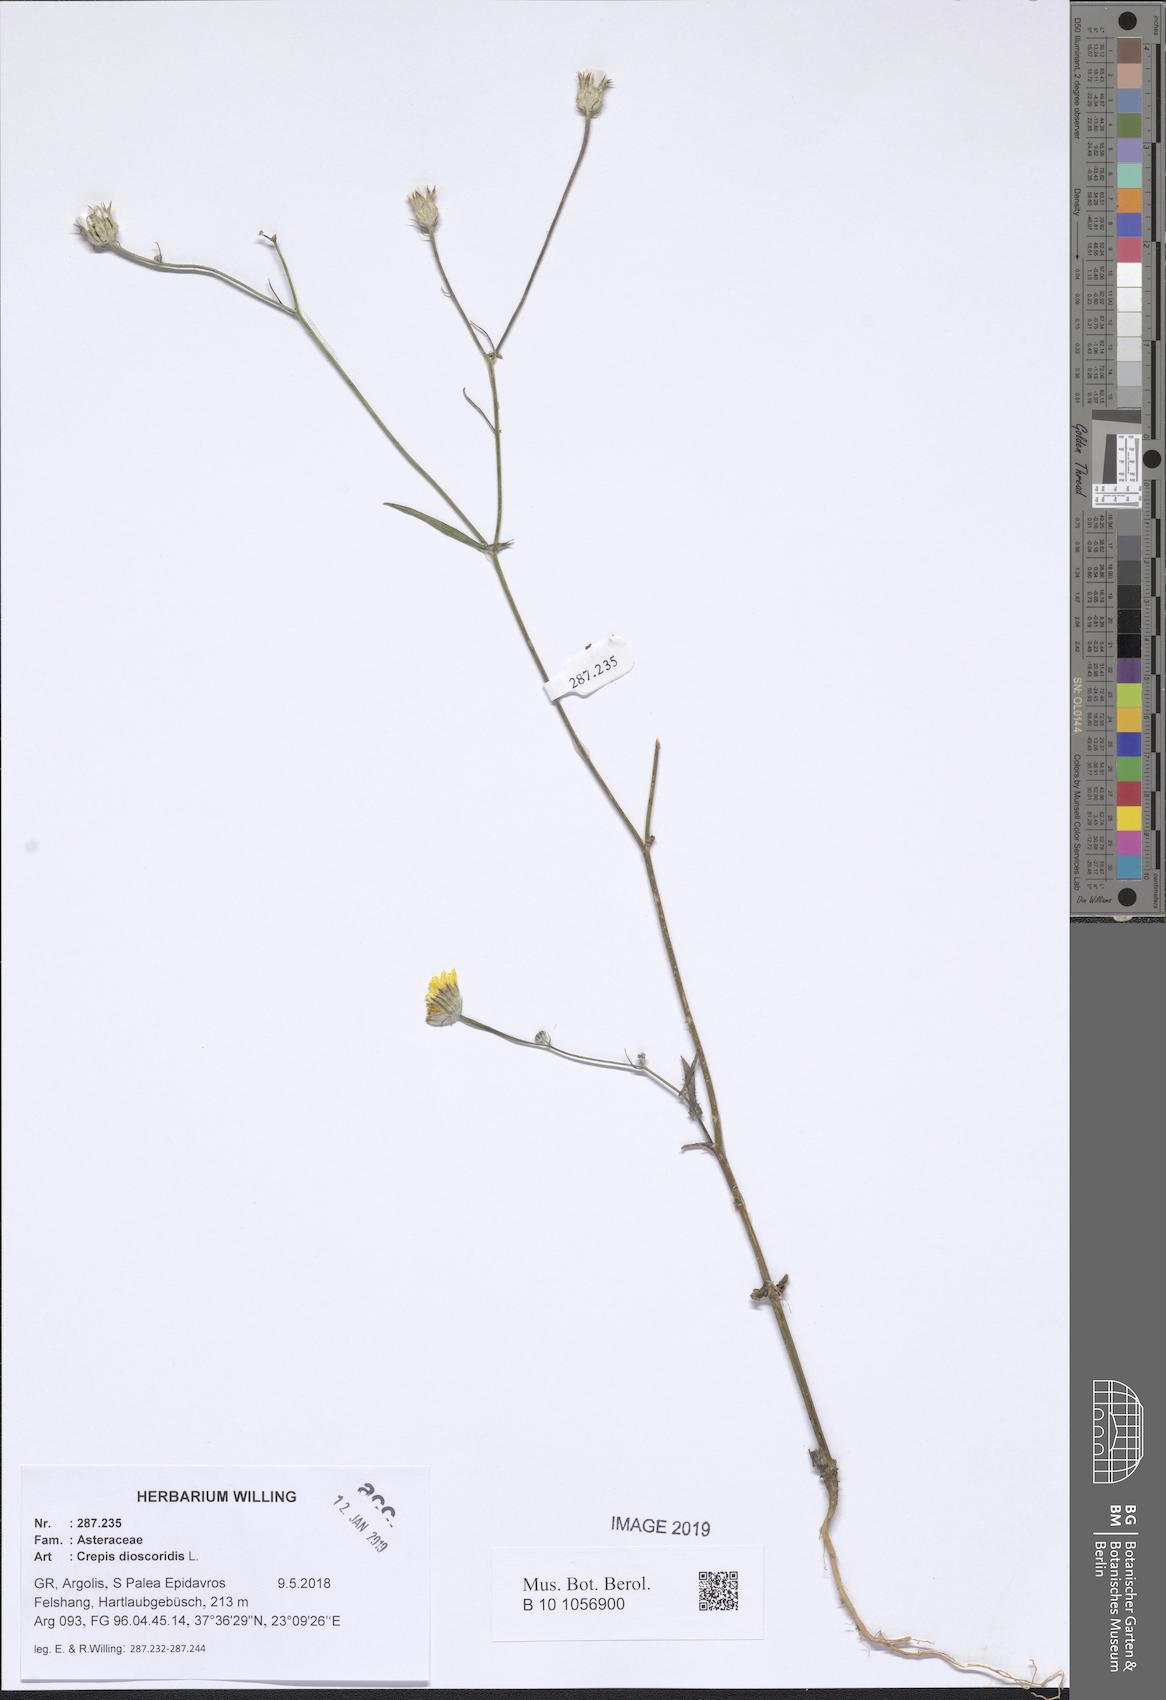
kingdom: Plantae
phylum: Tracheophyta
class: Magnoliopsida
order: Asterales
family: Asteraceae
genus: Crepis
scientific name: Crepis dioscoridis
